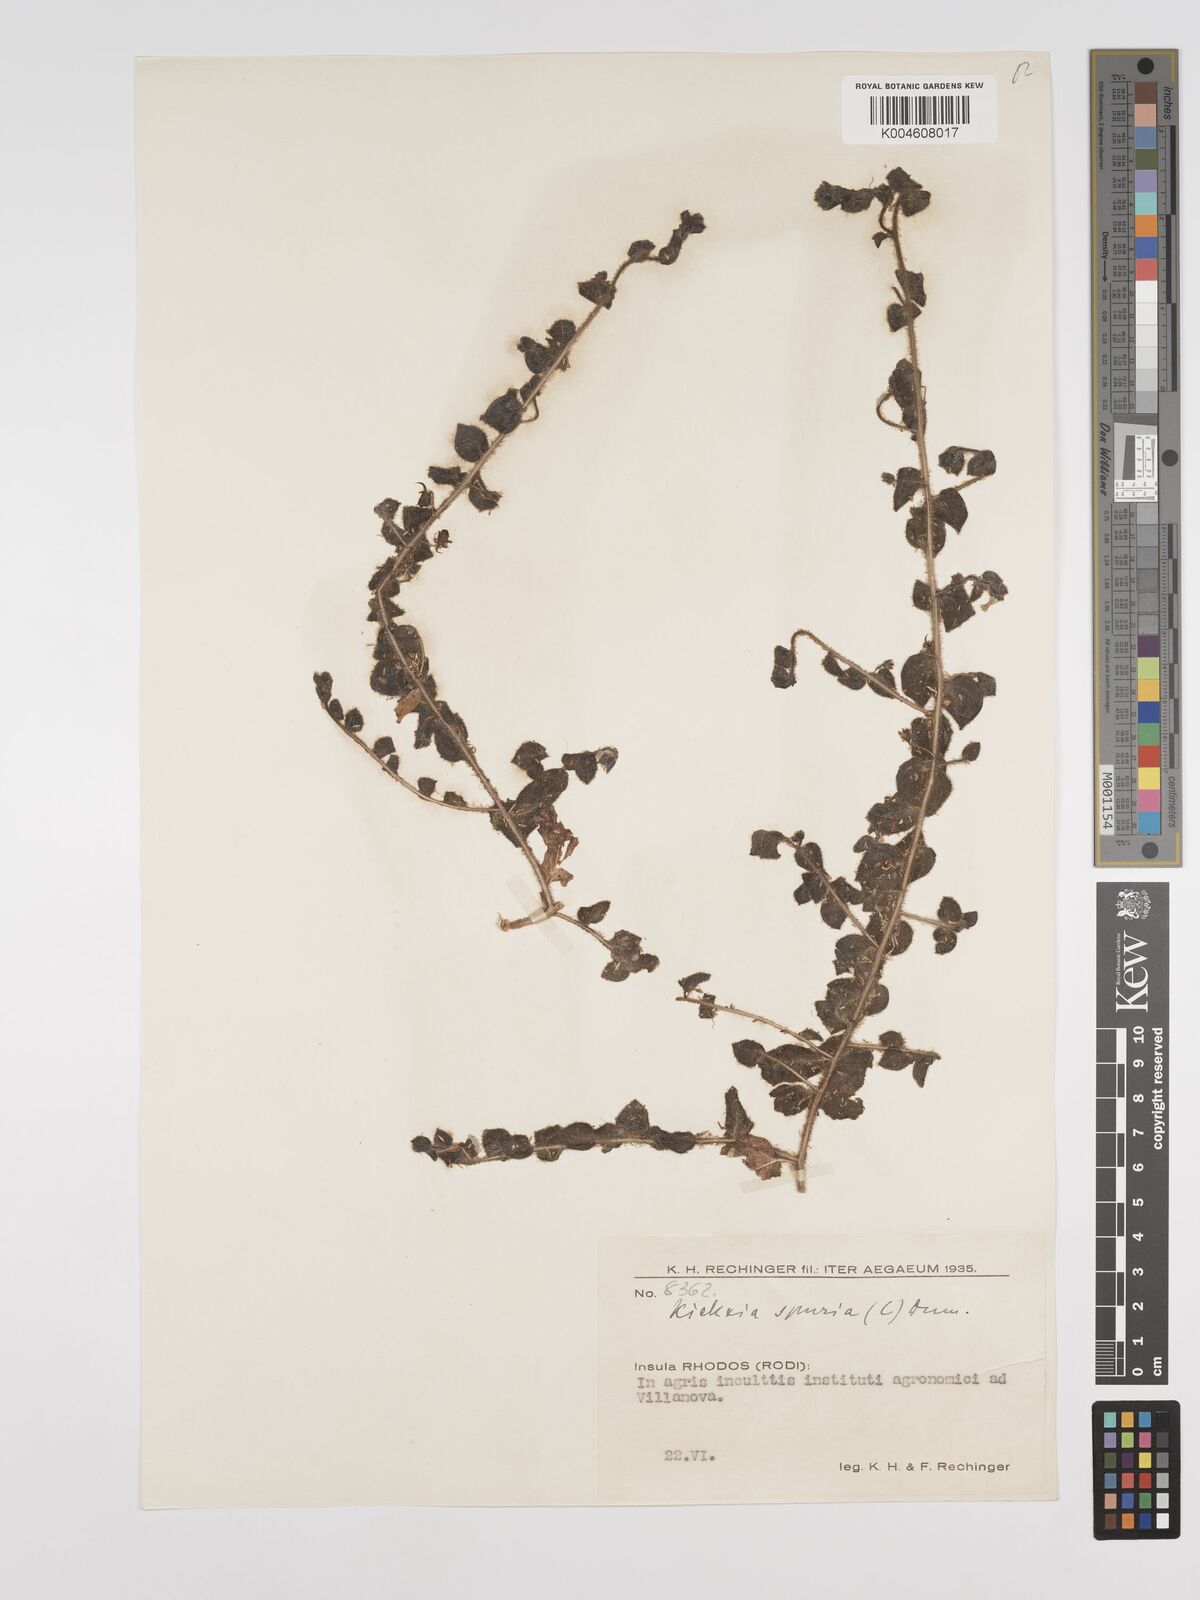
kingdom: Plantae
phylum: Tracheophyta
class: Magnoliopsida
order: Lamiales
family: Plantaginaceae
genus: Kickxia
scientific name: Kickxia spuria
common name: Round-leaved fluellen
